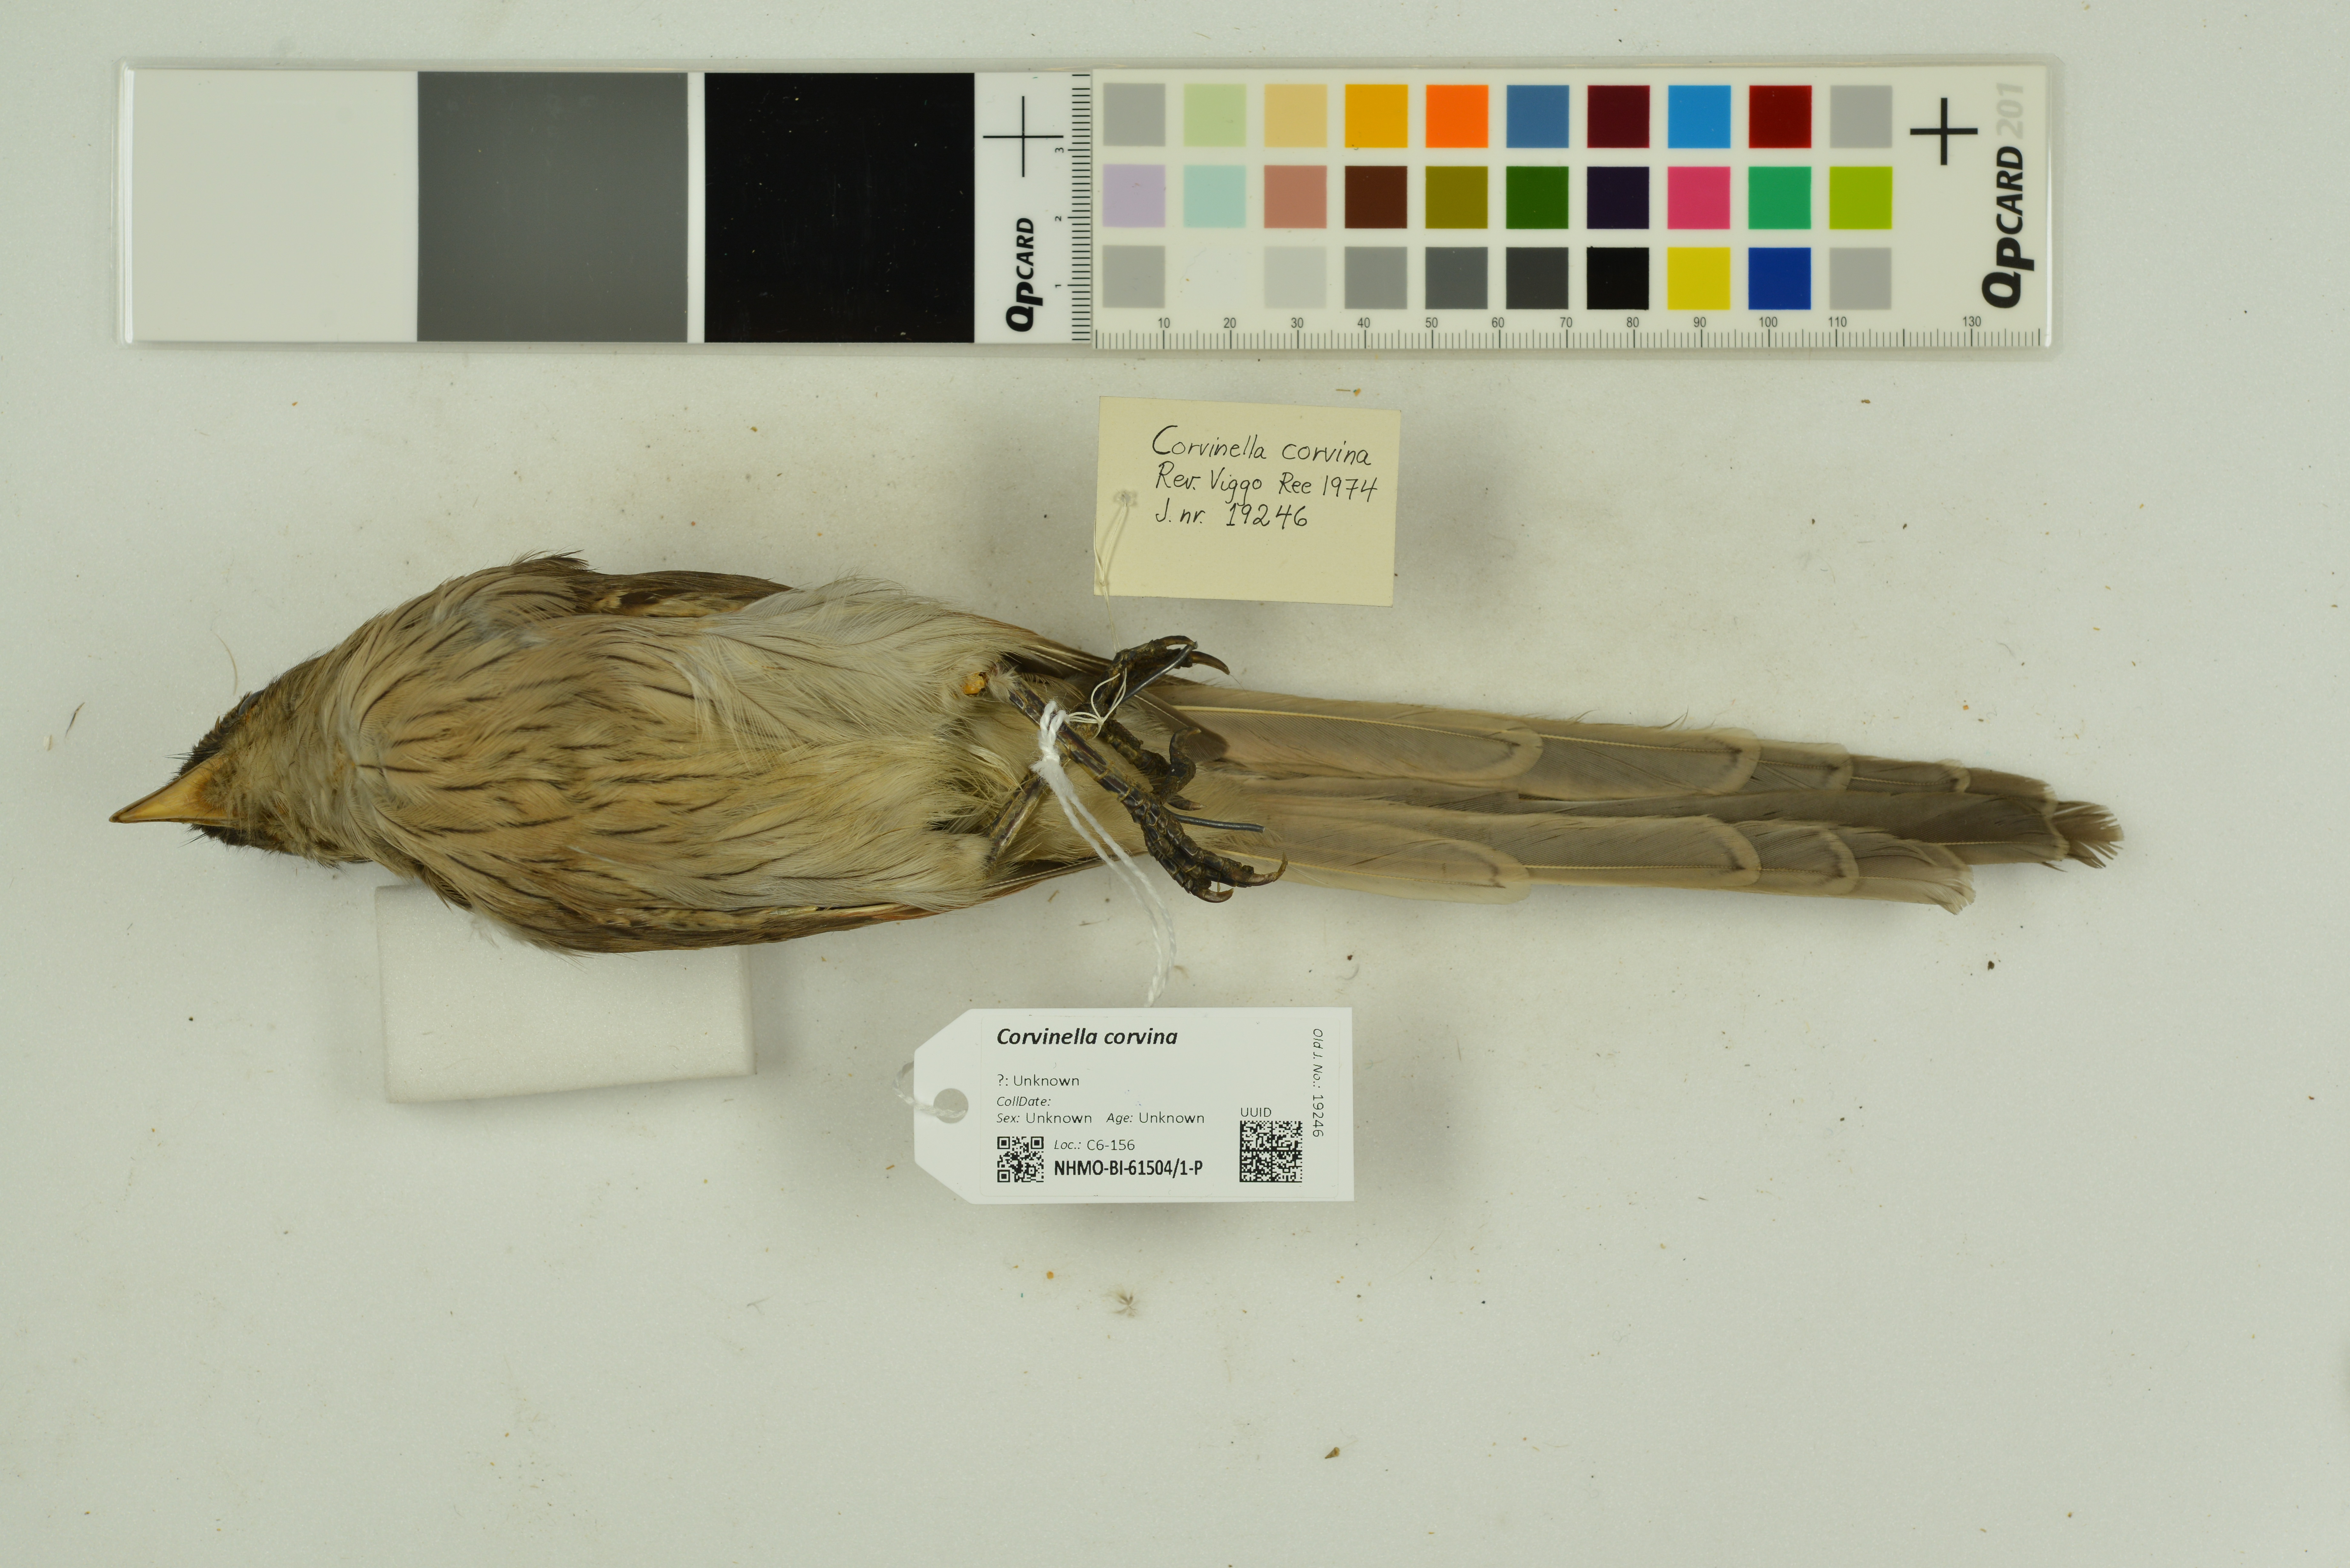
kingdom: Animalia
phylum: Chordata
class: Aves
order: Passeriformes
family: Laniidae
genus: Corvinella
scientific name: Corvinella corvina
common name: Yellow-billed shrike
